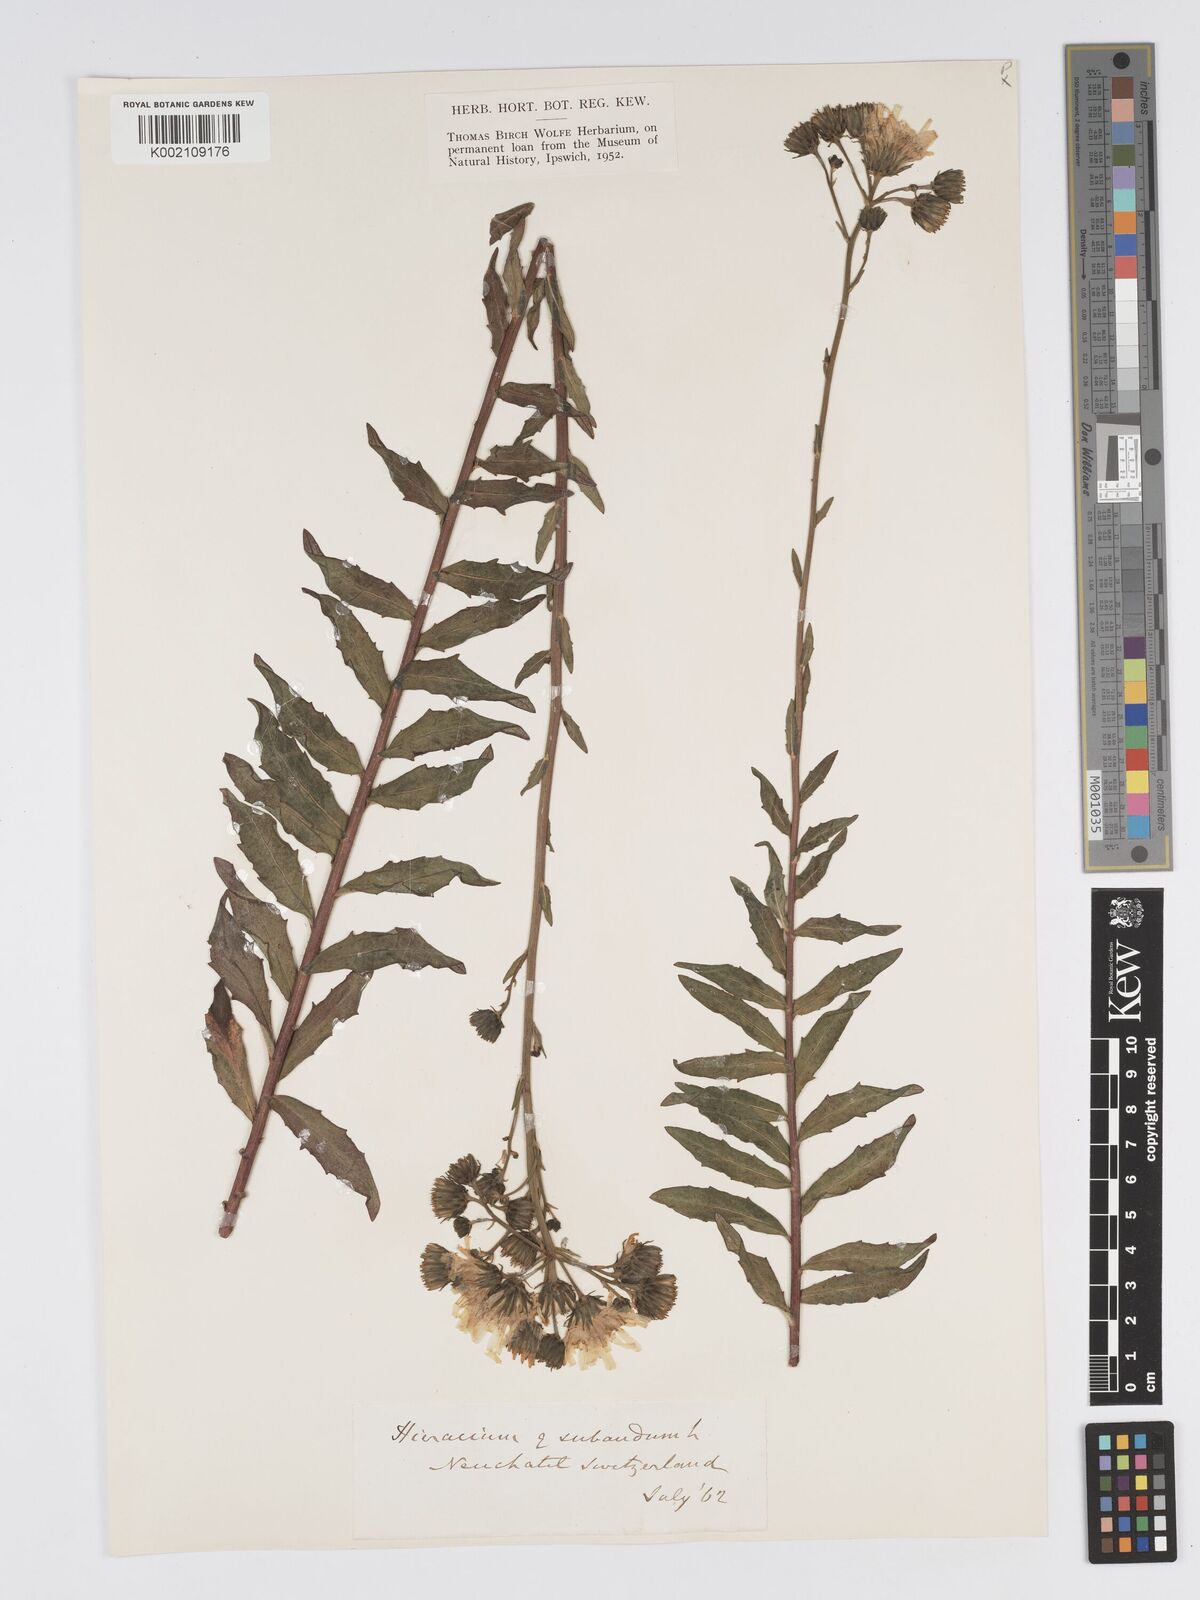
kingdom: Plantae
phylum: Tracheophyta
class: Magnoliopsida
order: Asterales
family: Asteraceae
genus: Hieracium
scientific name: Hieracium sabaudum
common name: New england hawkweed
